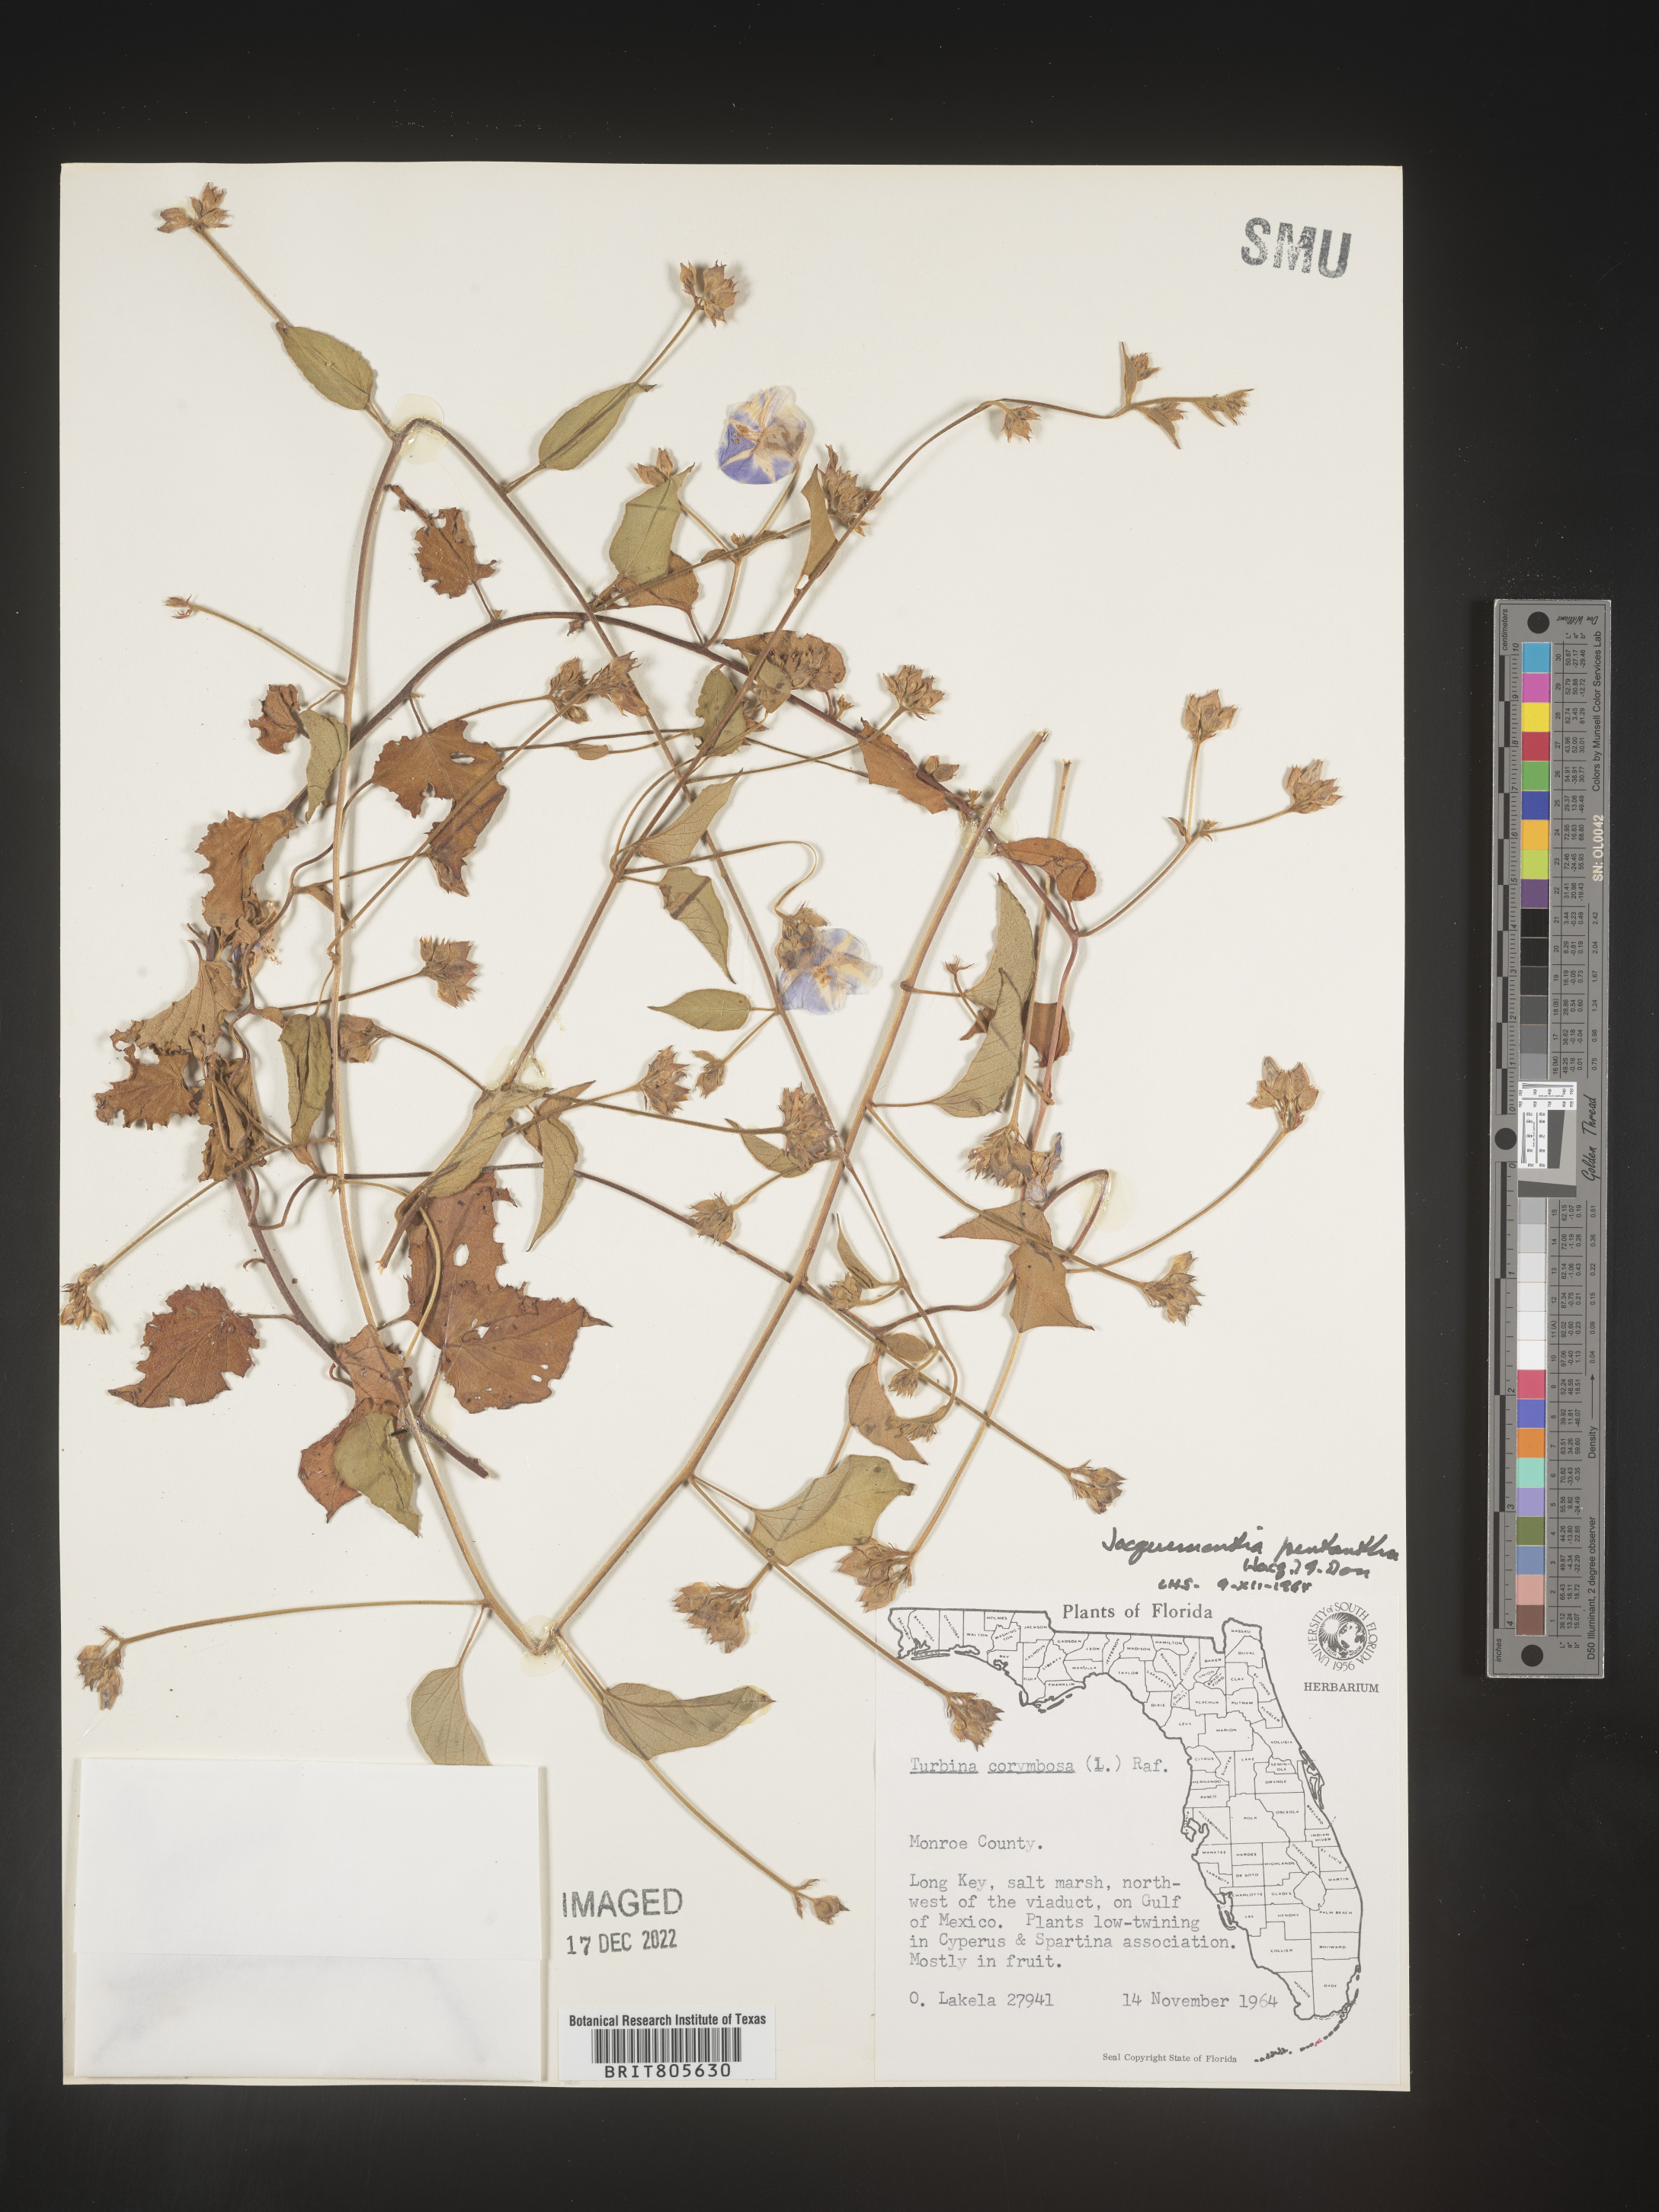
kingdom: Plantae
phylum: Tracheophyta
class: Magnoliopsida
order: Solanales
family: Convolvulaceae
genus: Jacquemontia
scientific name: Jacquemontia
